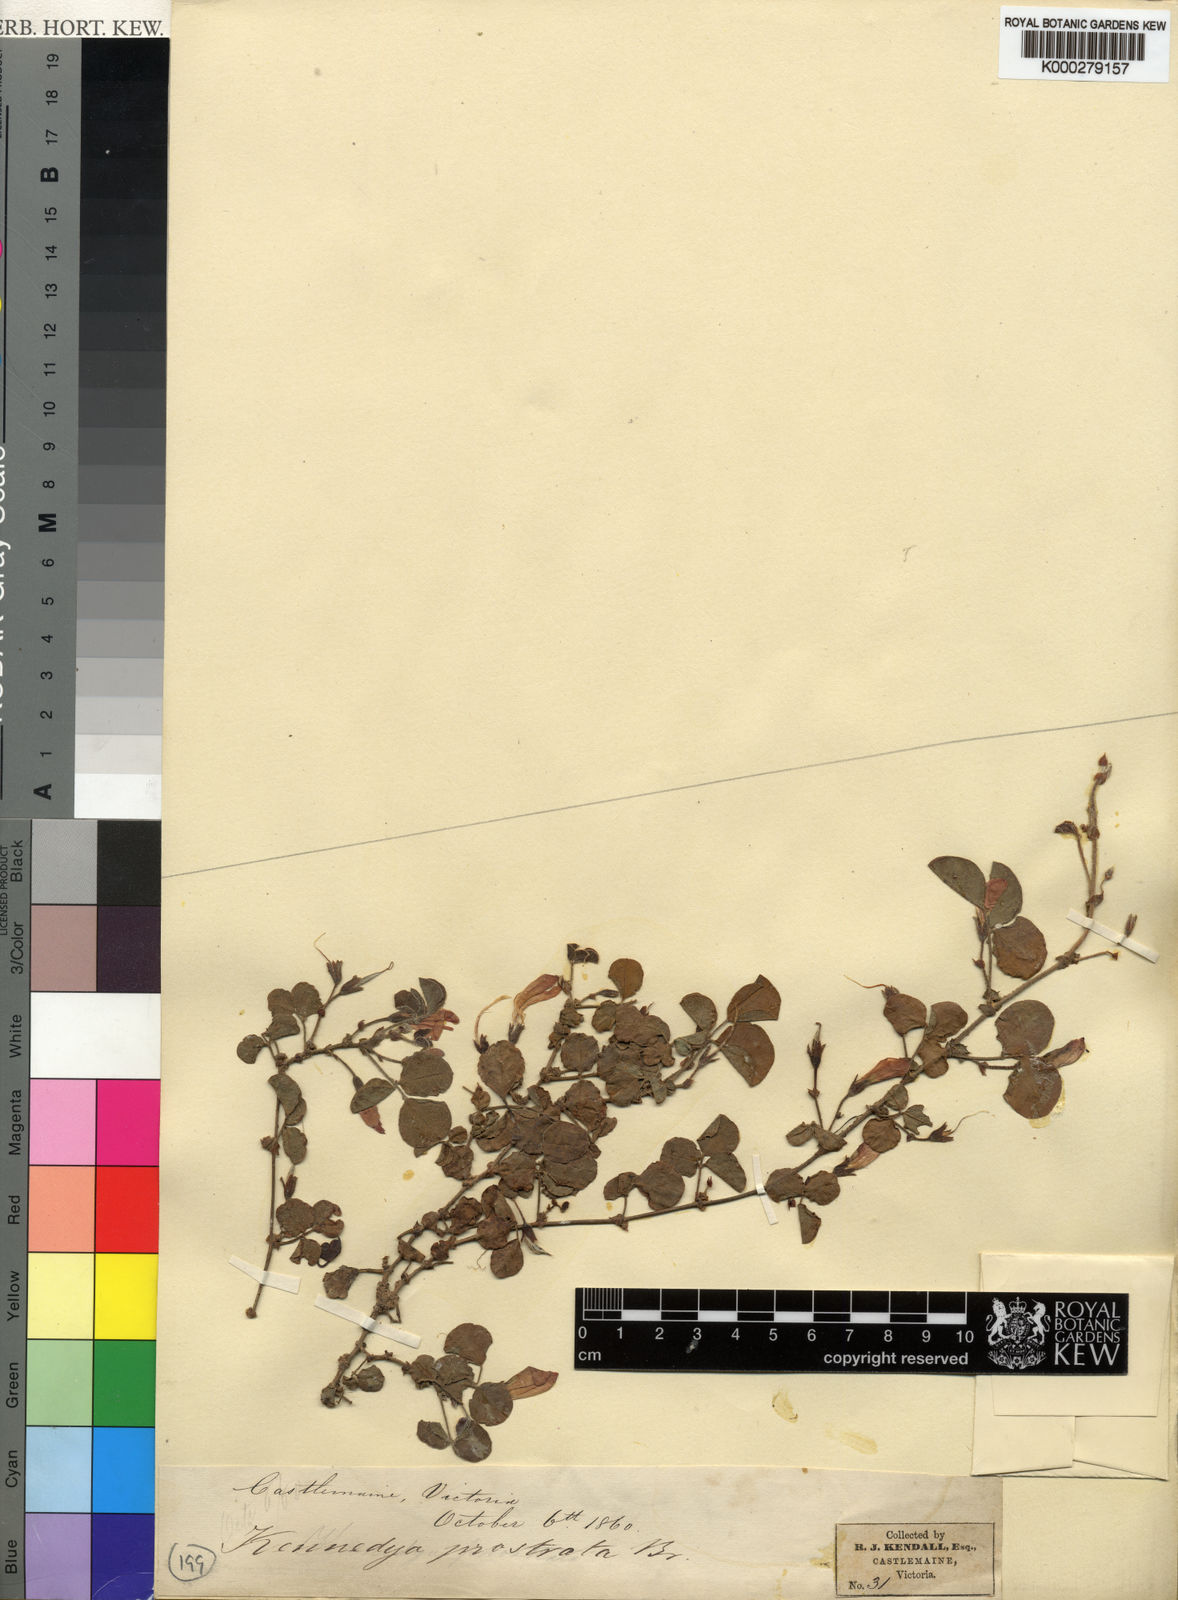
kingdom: Plantae
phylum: Tracheophyta
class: Magnoliopsida
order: Fabales
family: Fabaceae
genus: Kennedia
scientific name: Kennedia prostrata
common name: Running-postman
